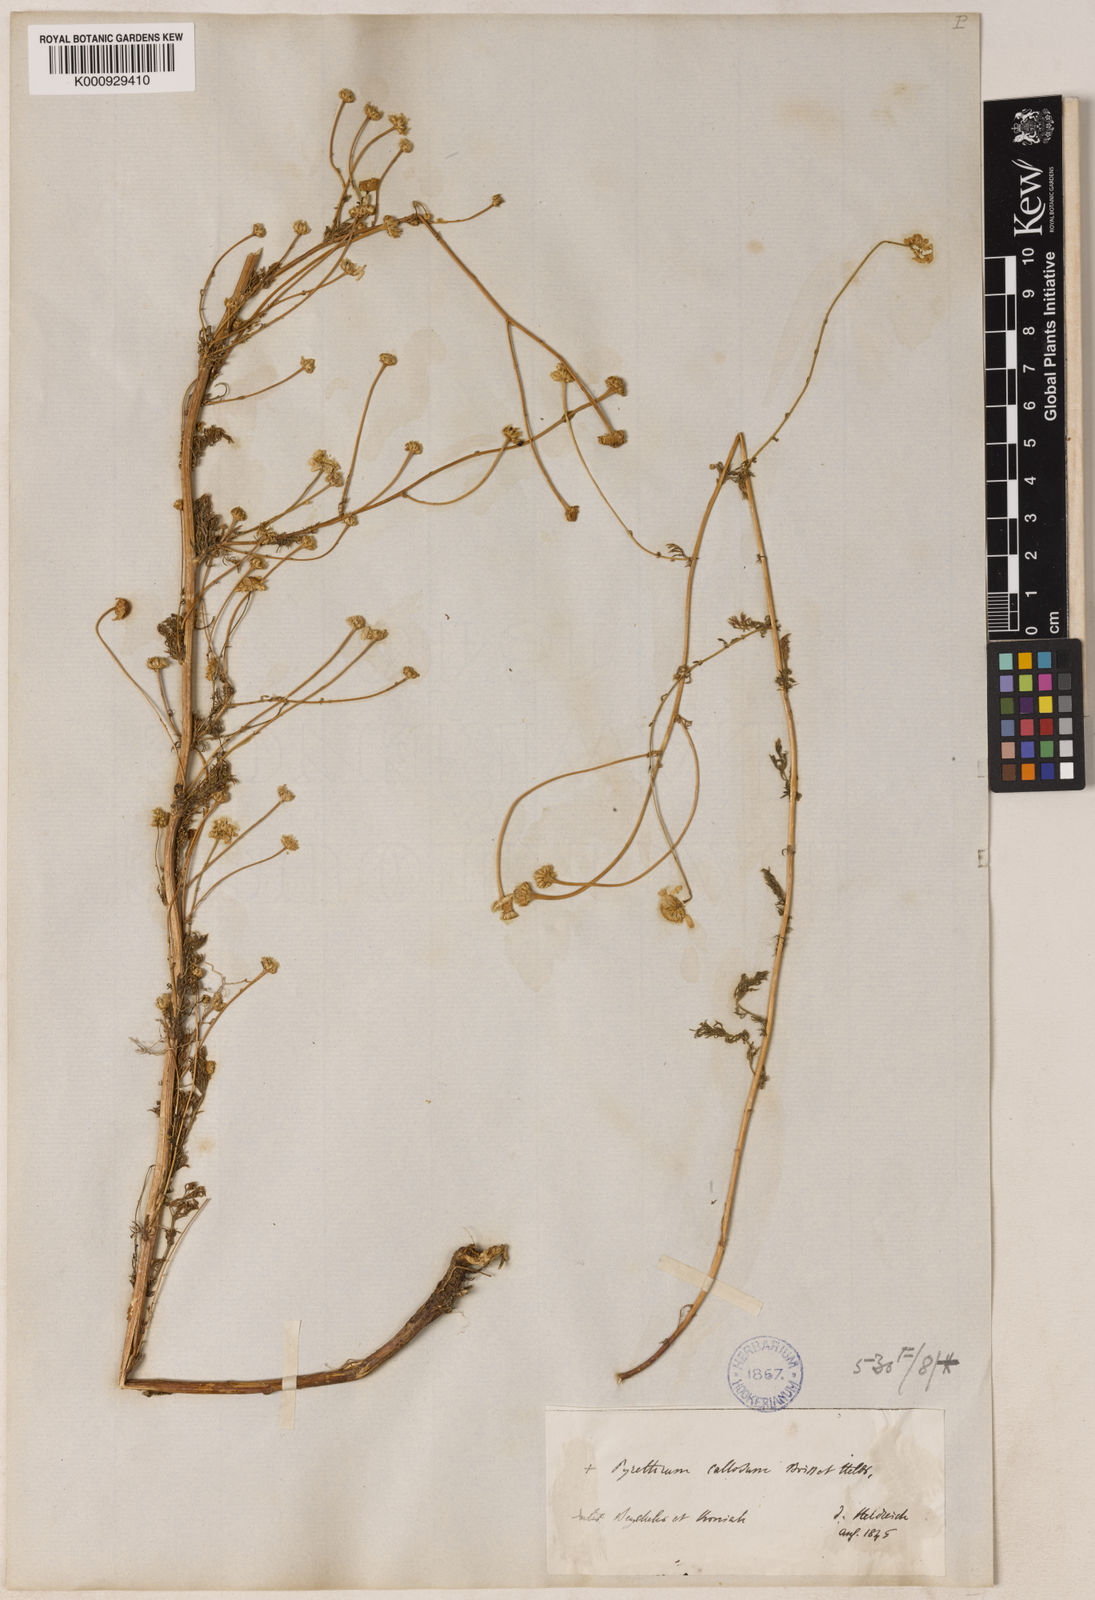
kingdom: Plantae
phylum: Tracheophyta
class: Magnoliopsida
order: Asterales
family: Asteraceae
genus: Tripleurospermum
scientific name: Tripleurospermum callosum
